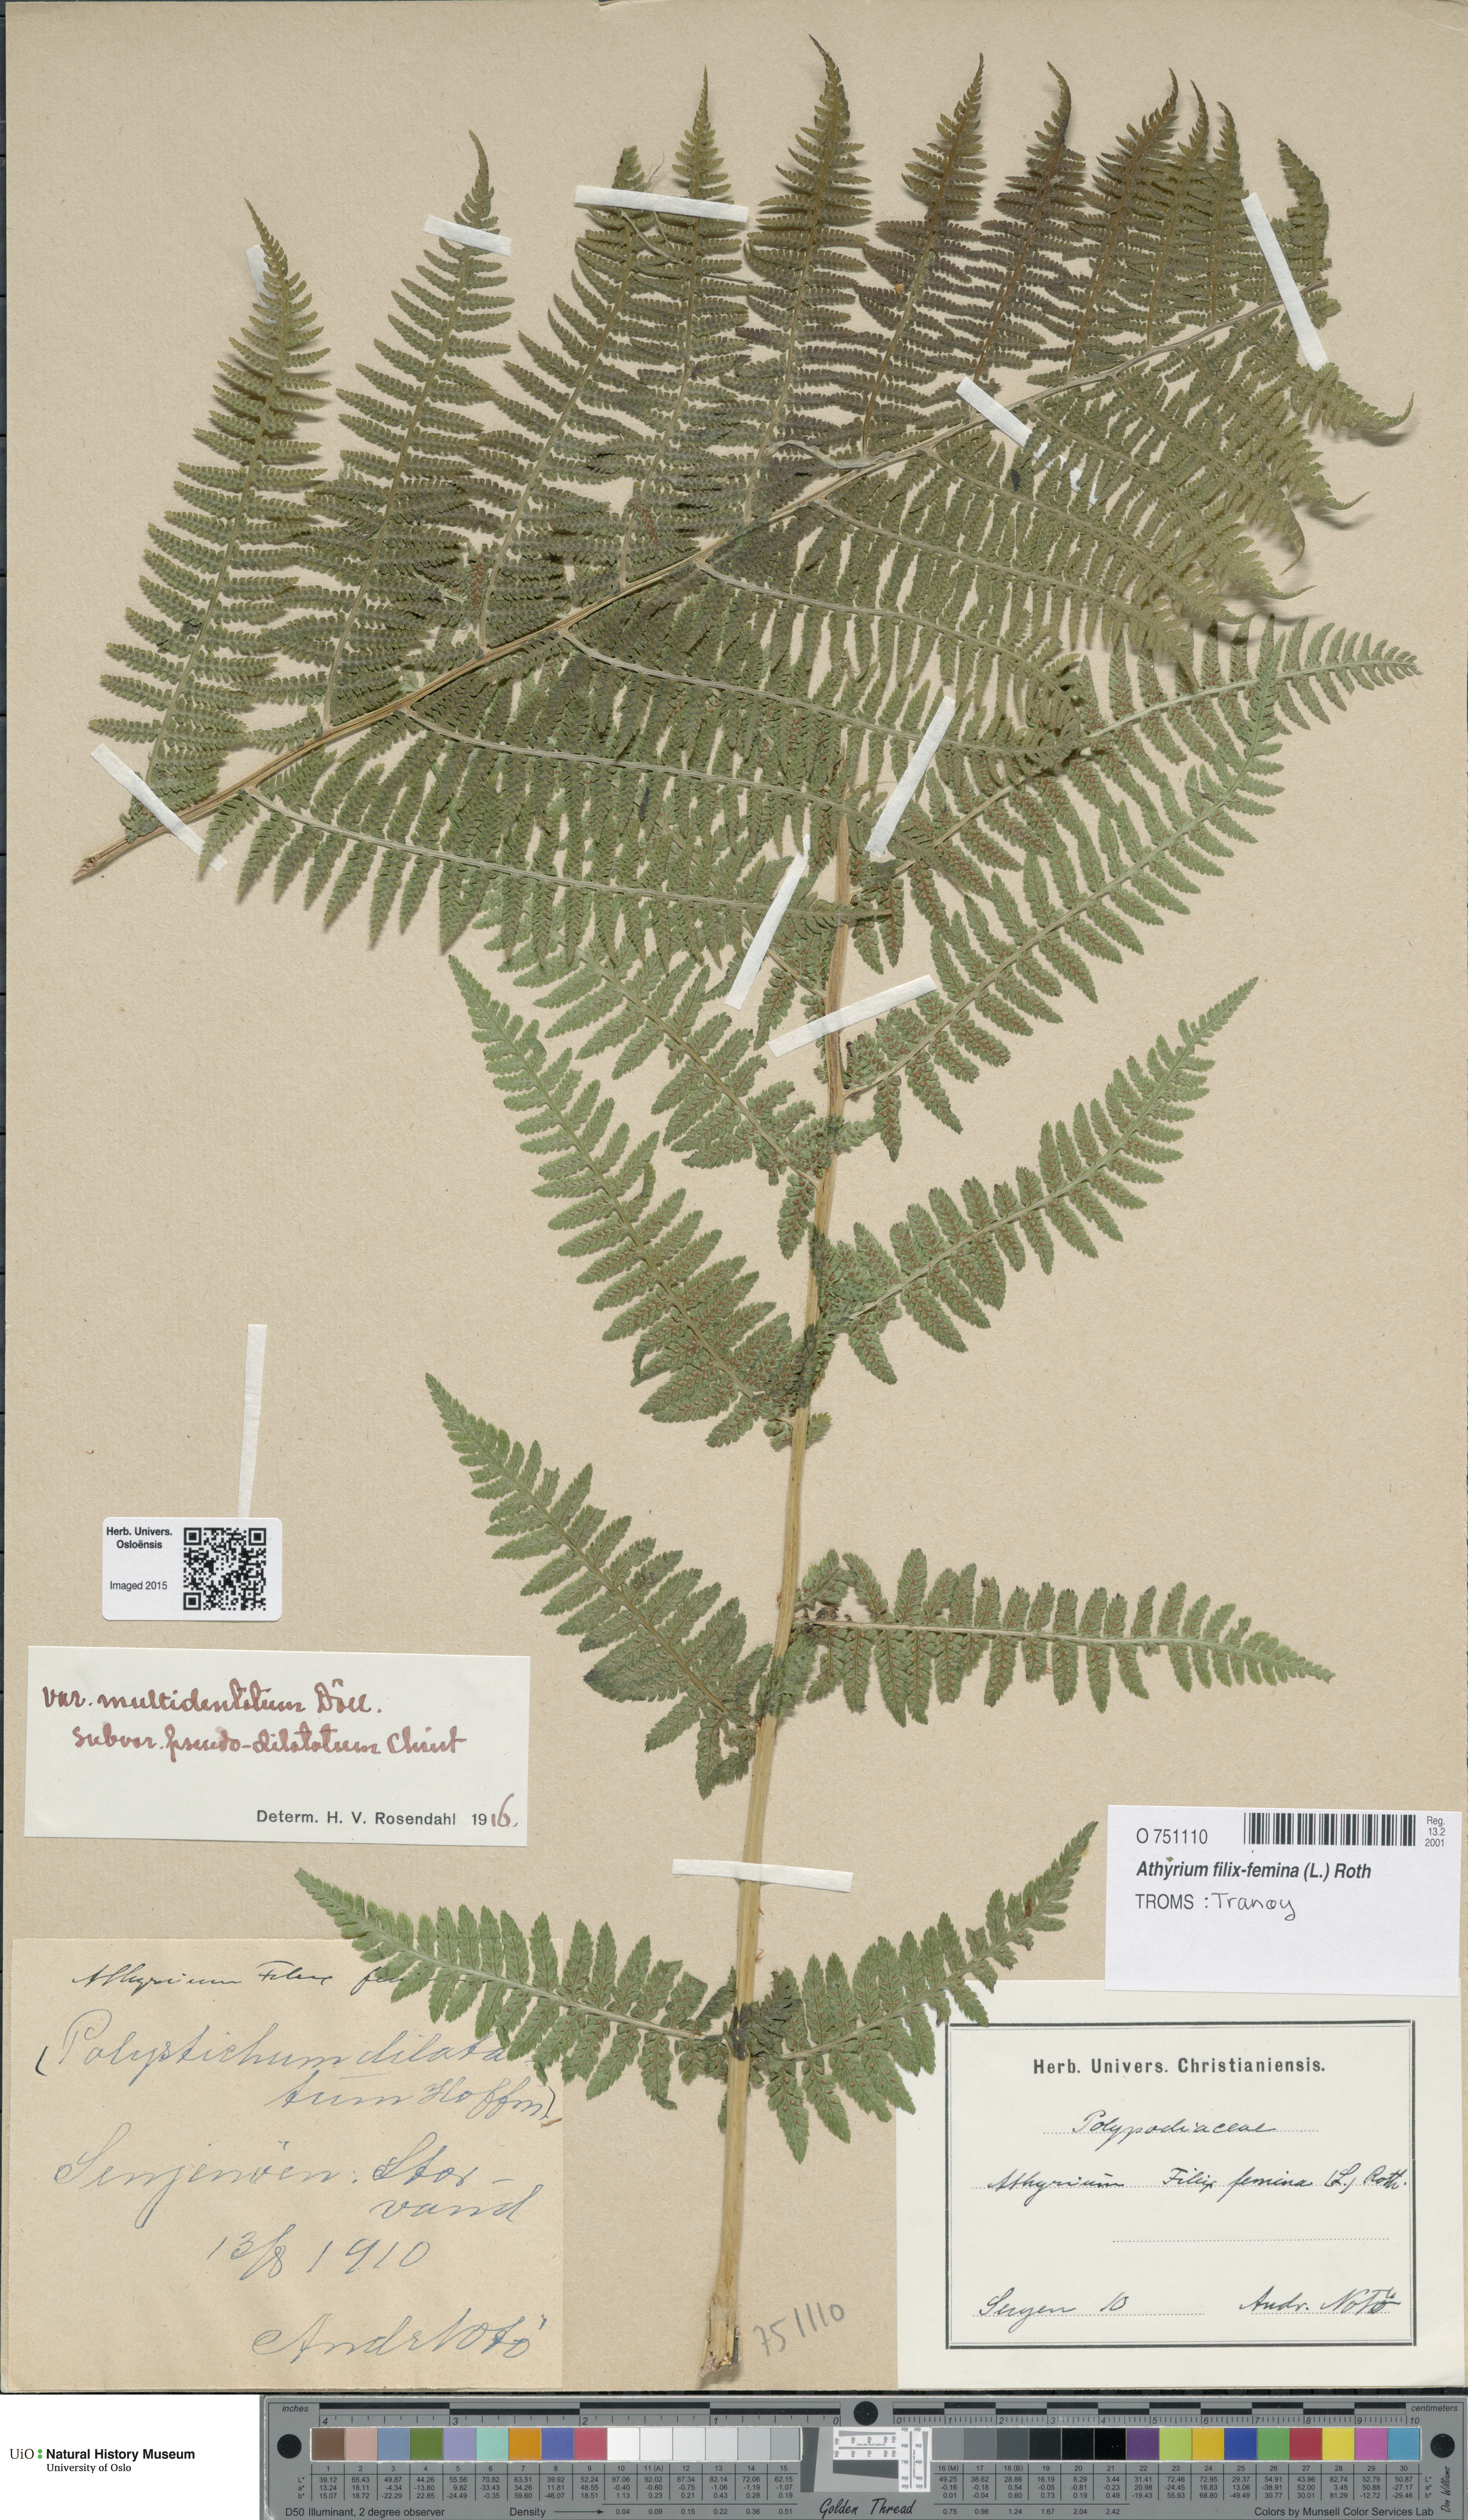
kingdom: Plantae
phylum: Tracheophyta
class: Polypodiopsida
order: Polypodiales
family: Athyriaceae
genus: Athyrium
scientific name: Athyrium filix-femina
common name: Lady fern
